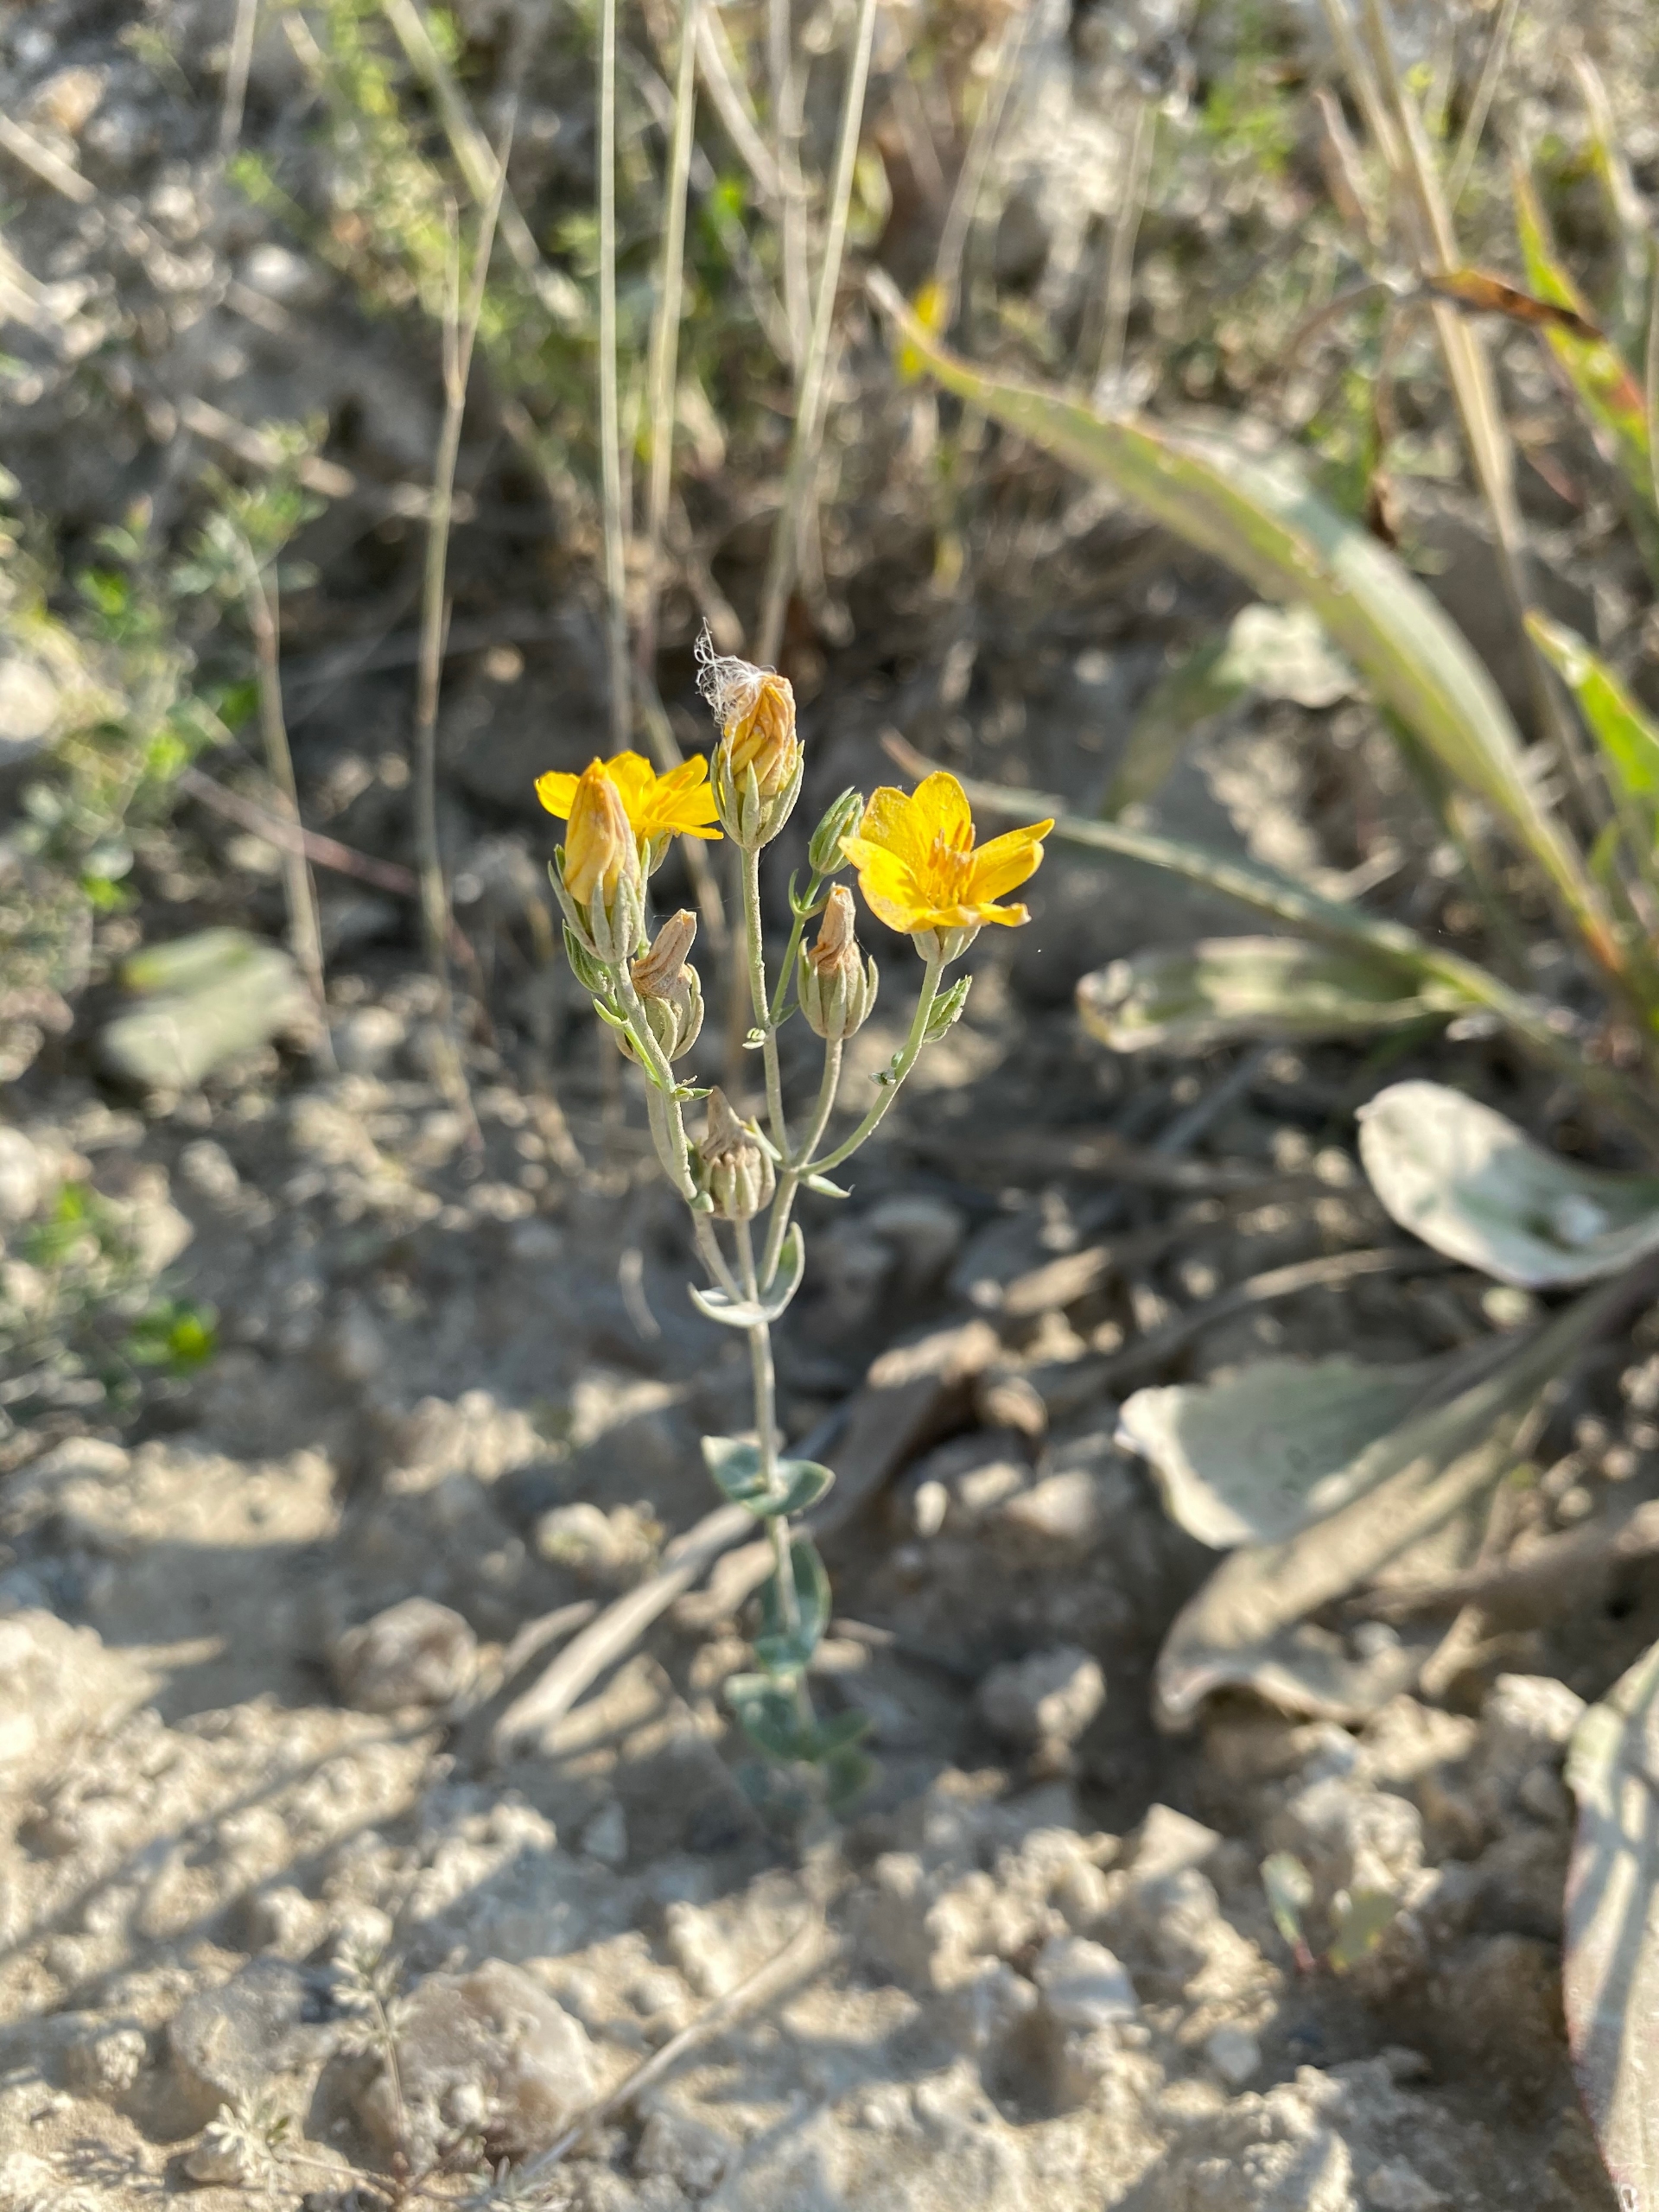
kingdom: Plantae
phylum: Tracheophyta
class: Magnoliopsida
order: Gentianales
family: Gentianaceae
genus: Blackstonia
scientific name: Blackstonia perfoliata
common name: Almindelig gyldenurt
